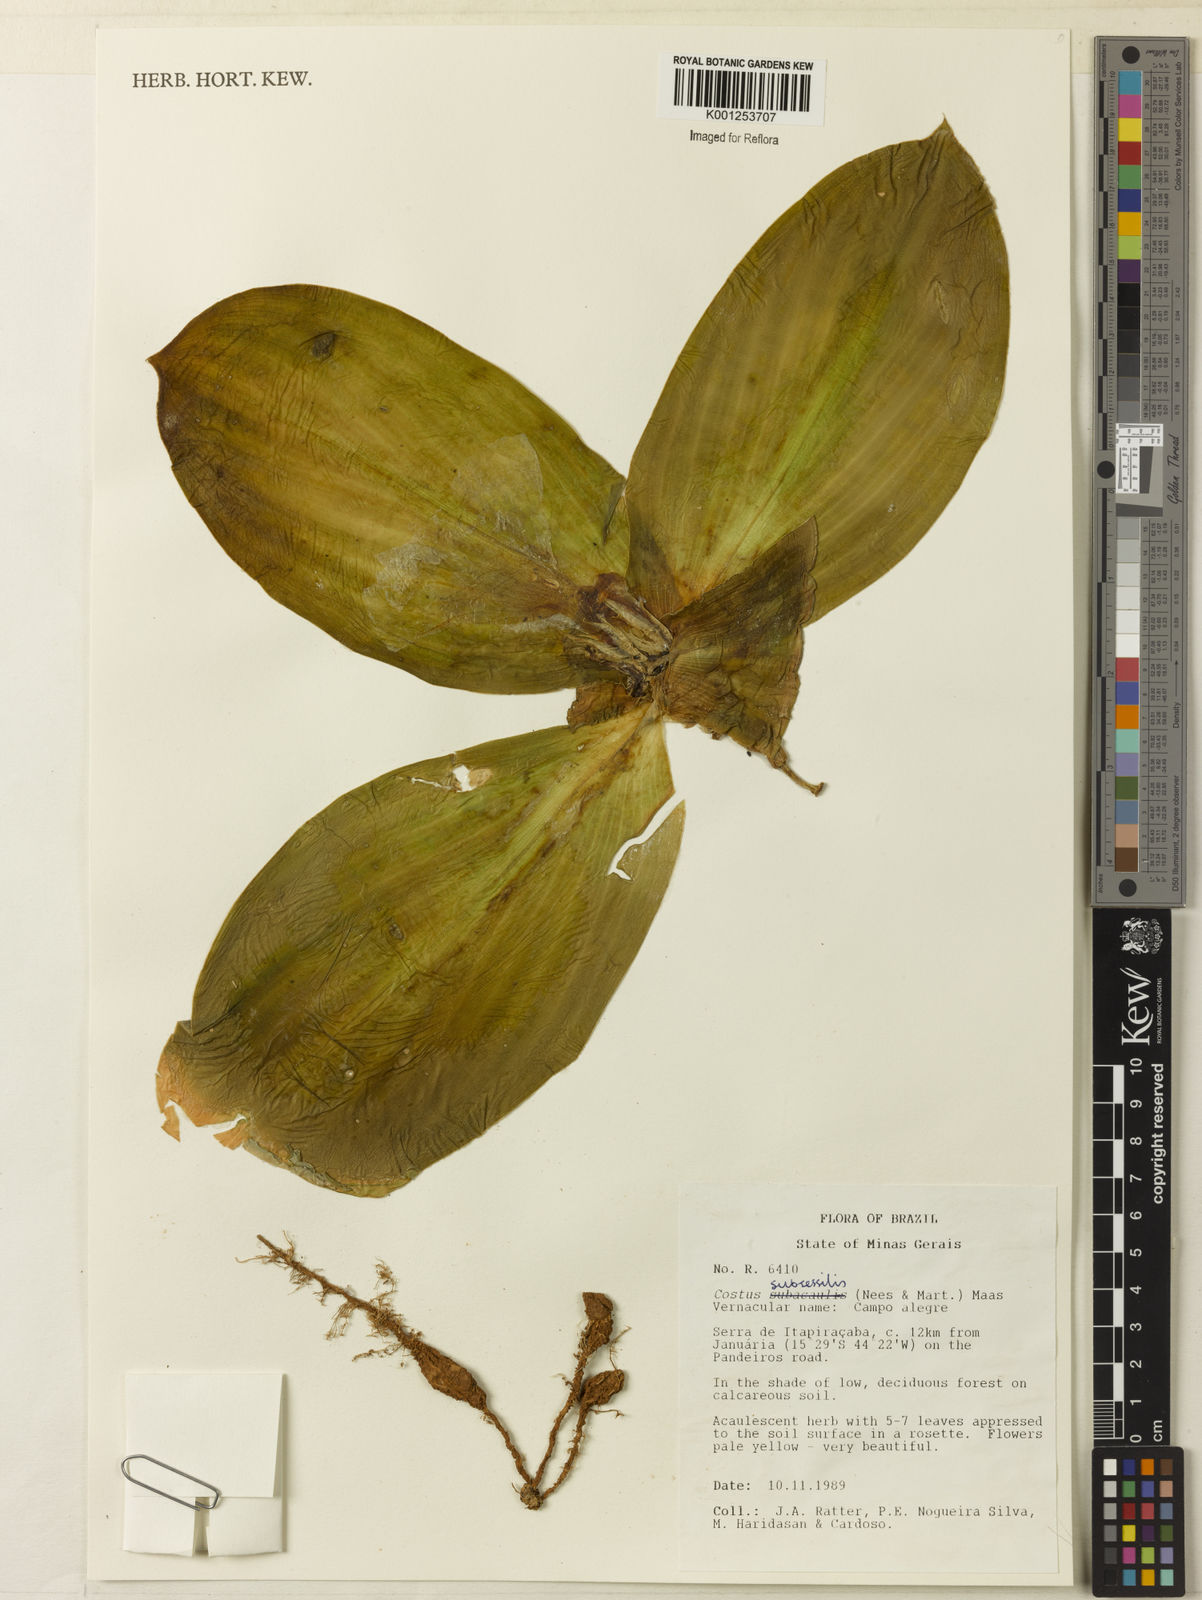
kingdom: Plantae
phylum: Tracheophyta
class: Liliopsida
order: Zingiberales
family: Costaceae
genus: Chamaecostus
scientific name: Chamaecostus subsessilis
